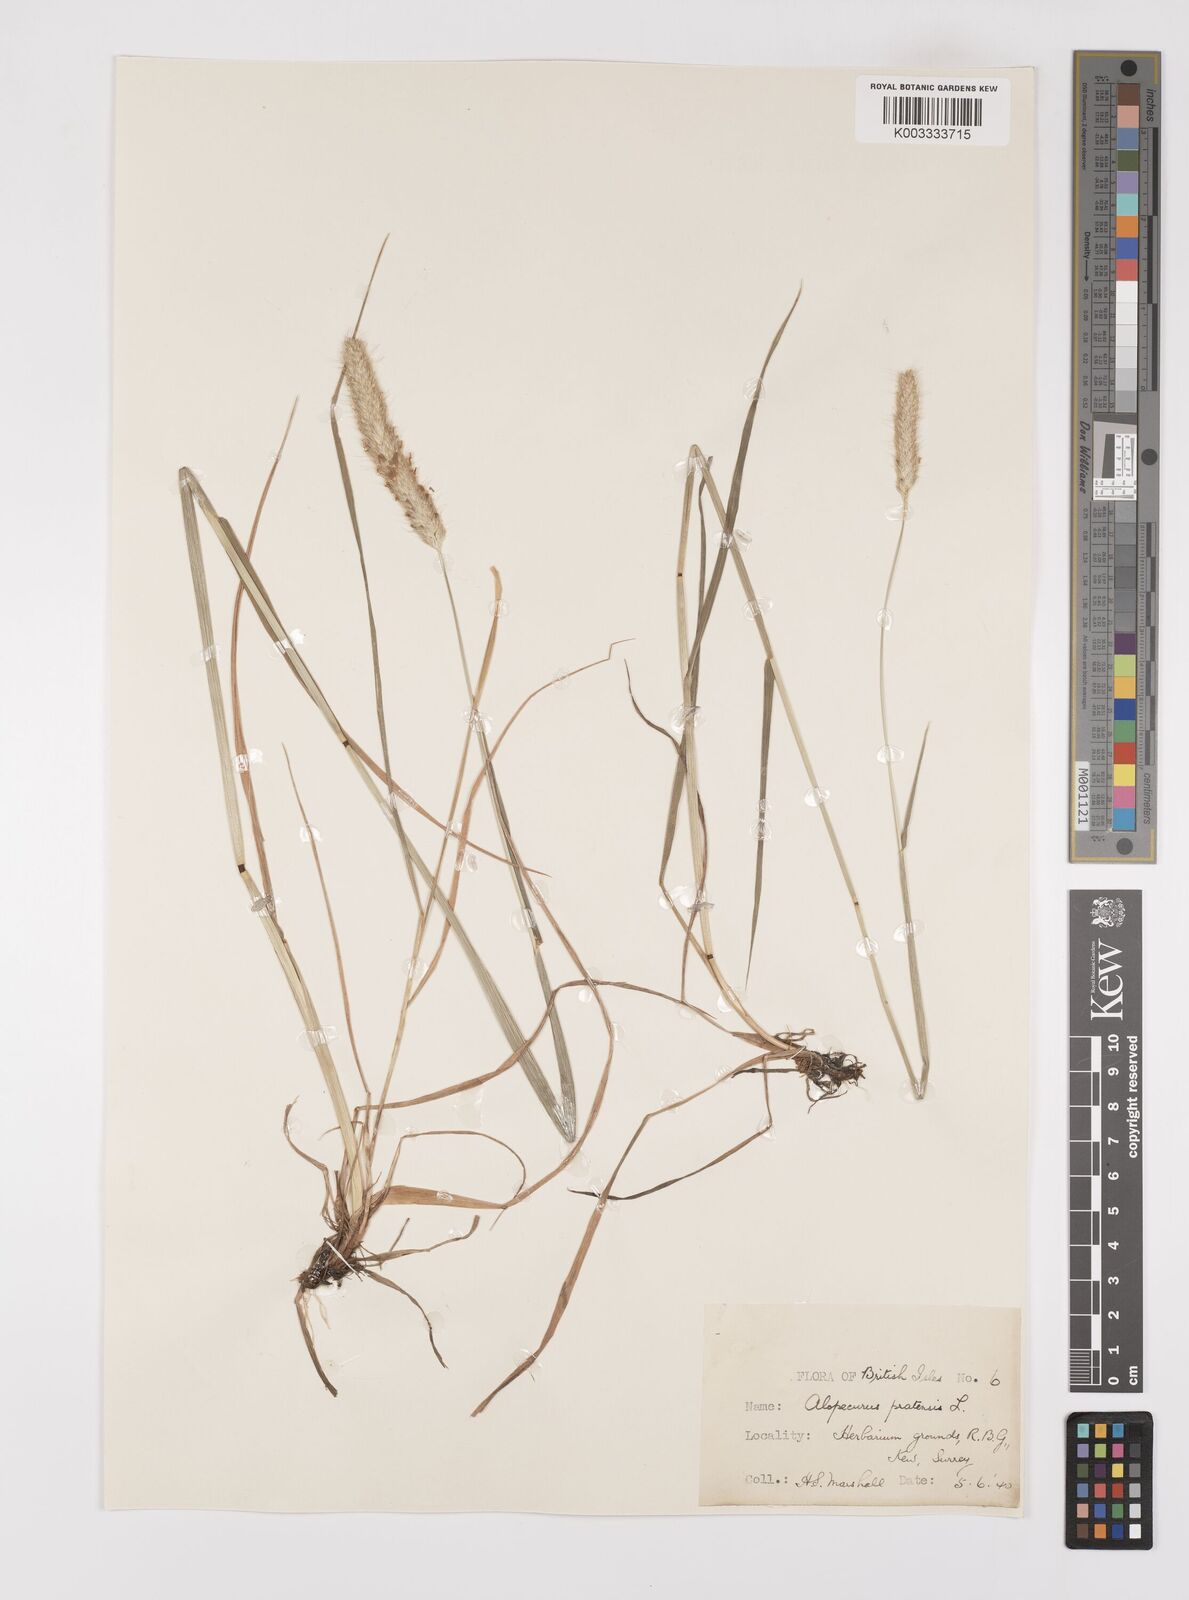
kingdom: Plantae
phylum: Tracheophyta
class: Liliopsida
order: Poales
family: Poaceae
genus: Alopecurus
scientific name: Alopecurus pratensis
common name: Meadow foxtail
